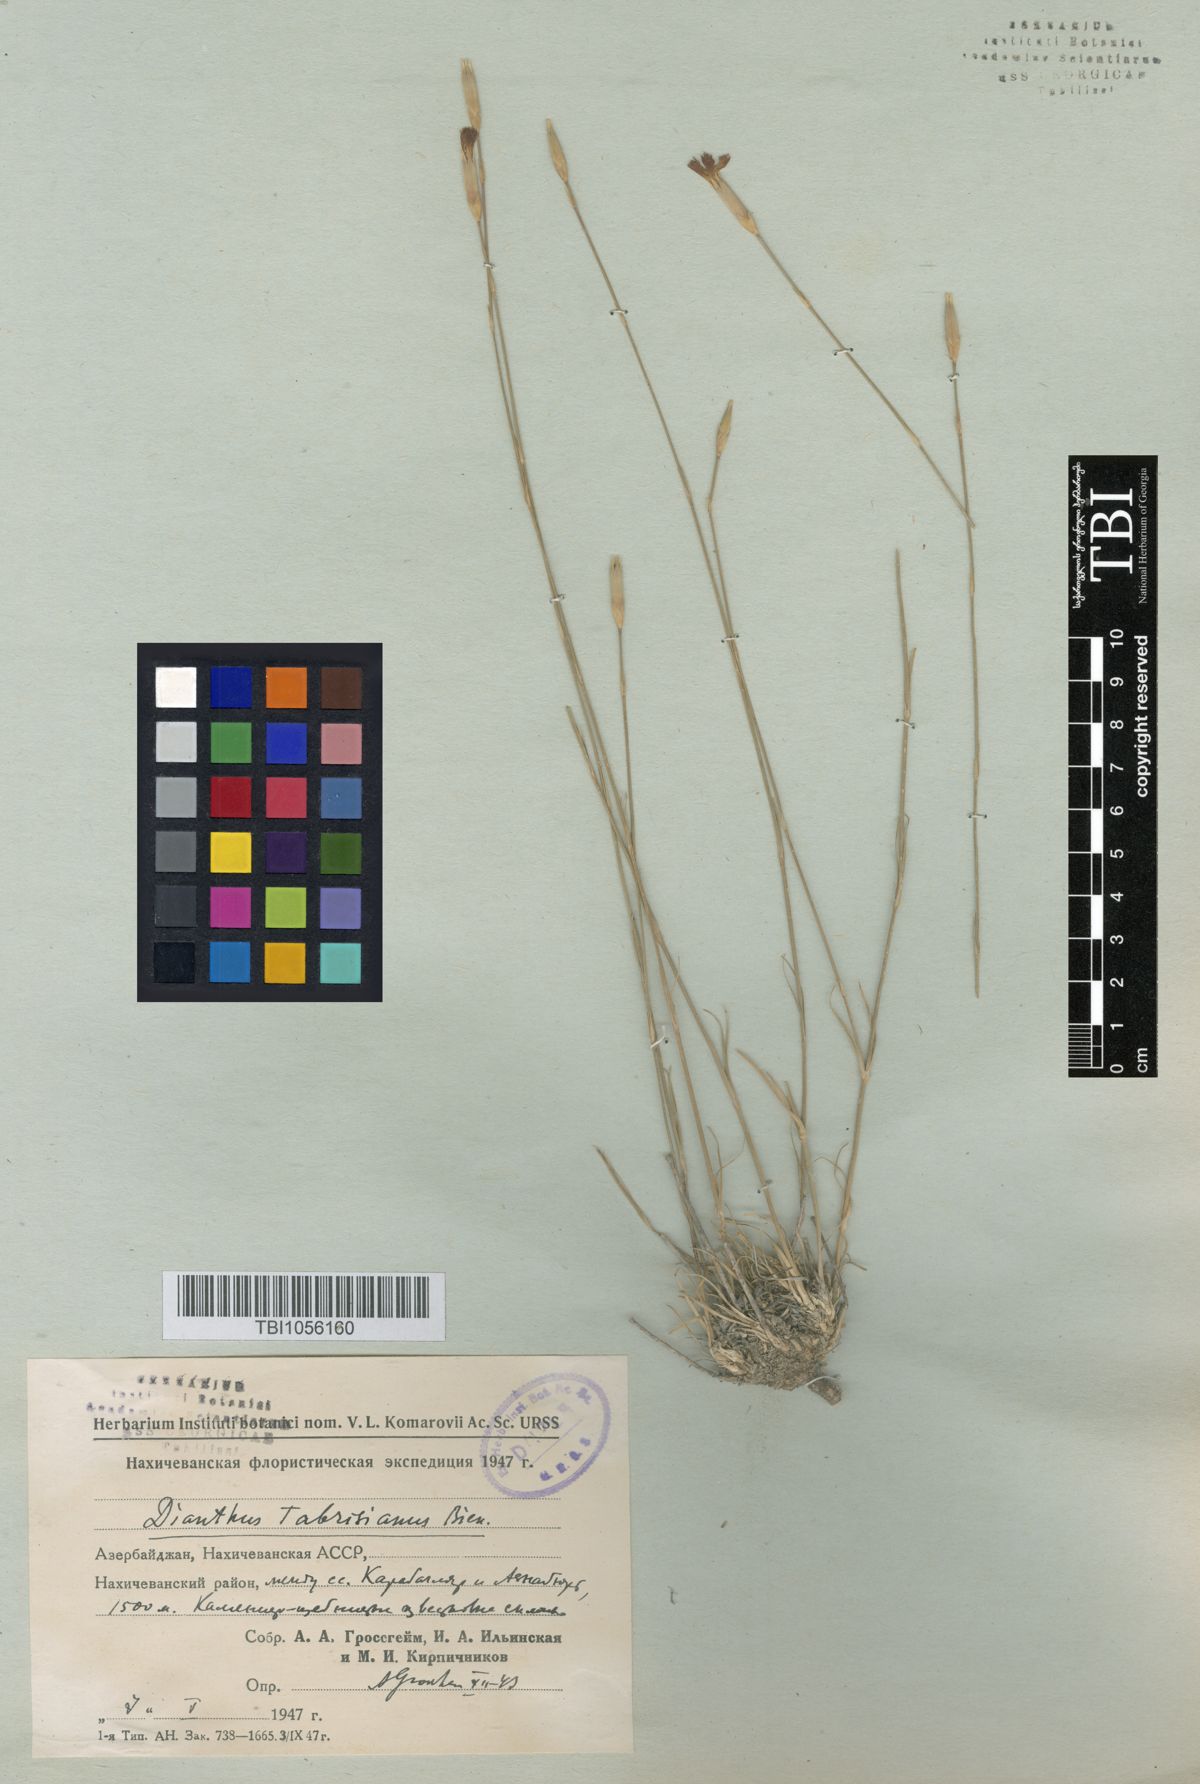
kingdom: Plantae
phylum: Tracheophyta
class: Magnoliopsida
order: Caryophyllales
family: Caryophyllaceae
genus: Dianthus
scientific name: Dianthus tabrisianus
